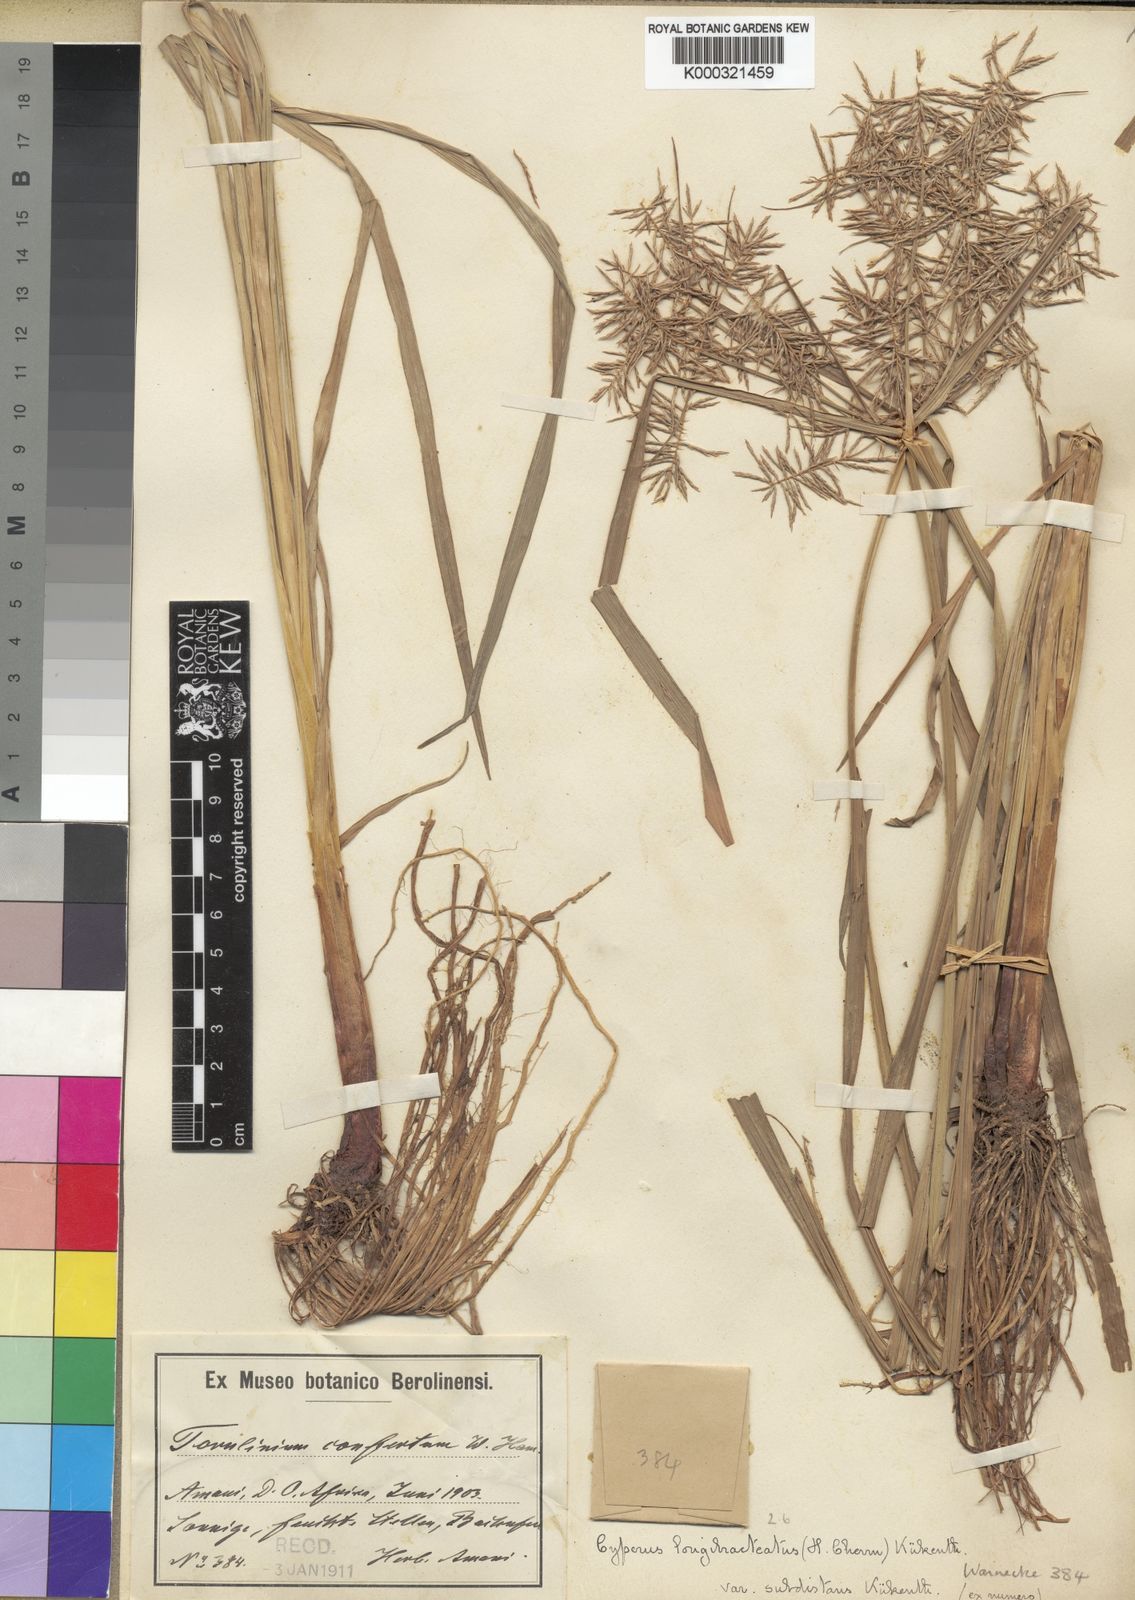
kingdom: Plantae
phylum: Tracheophyta
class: Liliopsida
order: Poales
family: Cyperaceae
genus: Cyperus
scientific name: Cyperus
